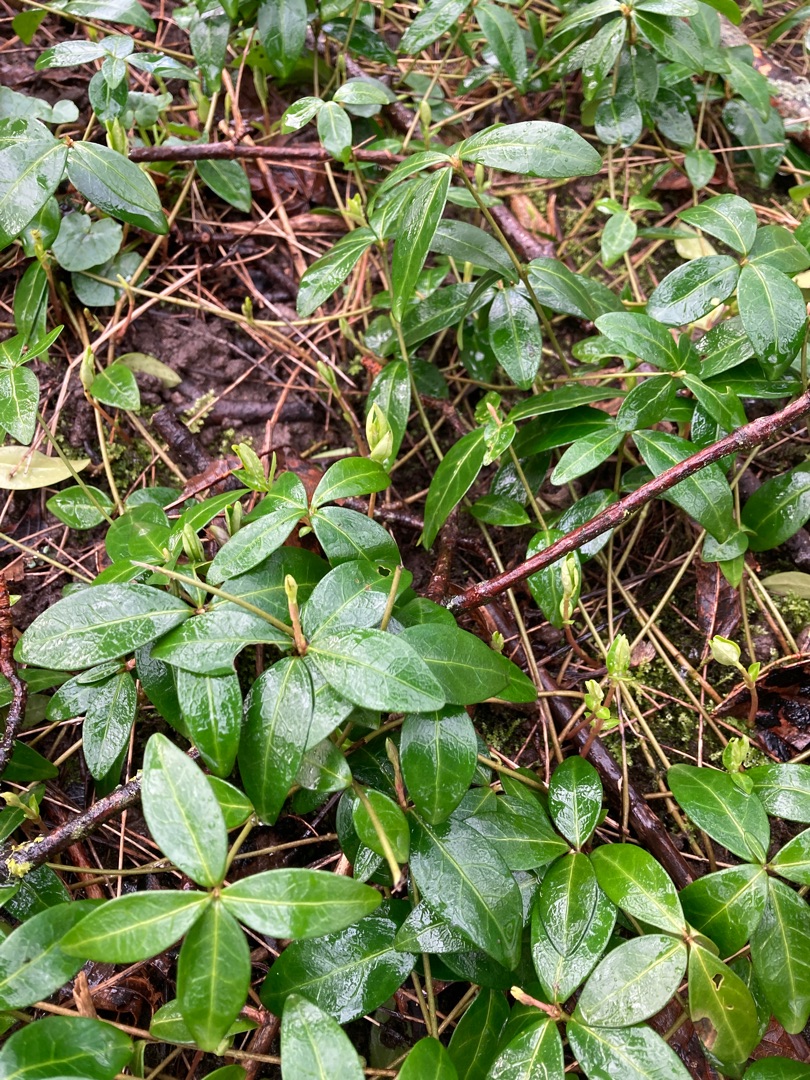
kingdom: Plantae
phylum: Tracheophyta
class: Magnoliopsida
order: Gentianales
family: Apocynaceae
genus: Vinca
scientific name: Vinca minor
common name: Liden singrøn
